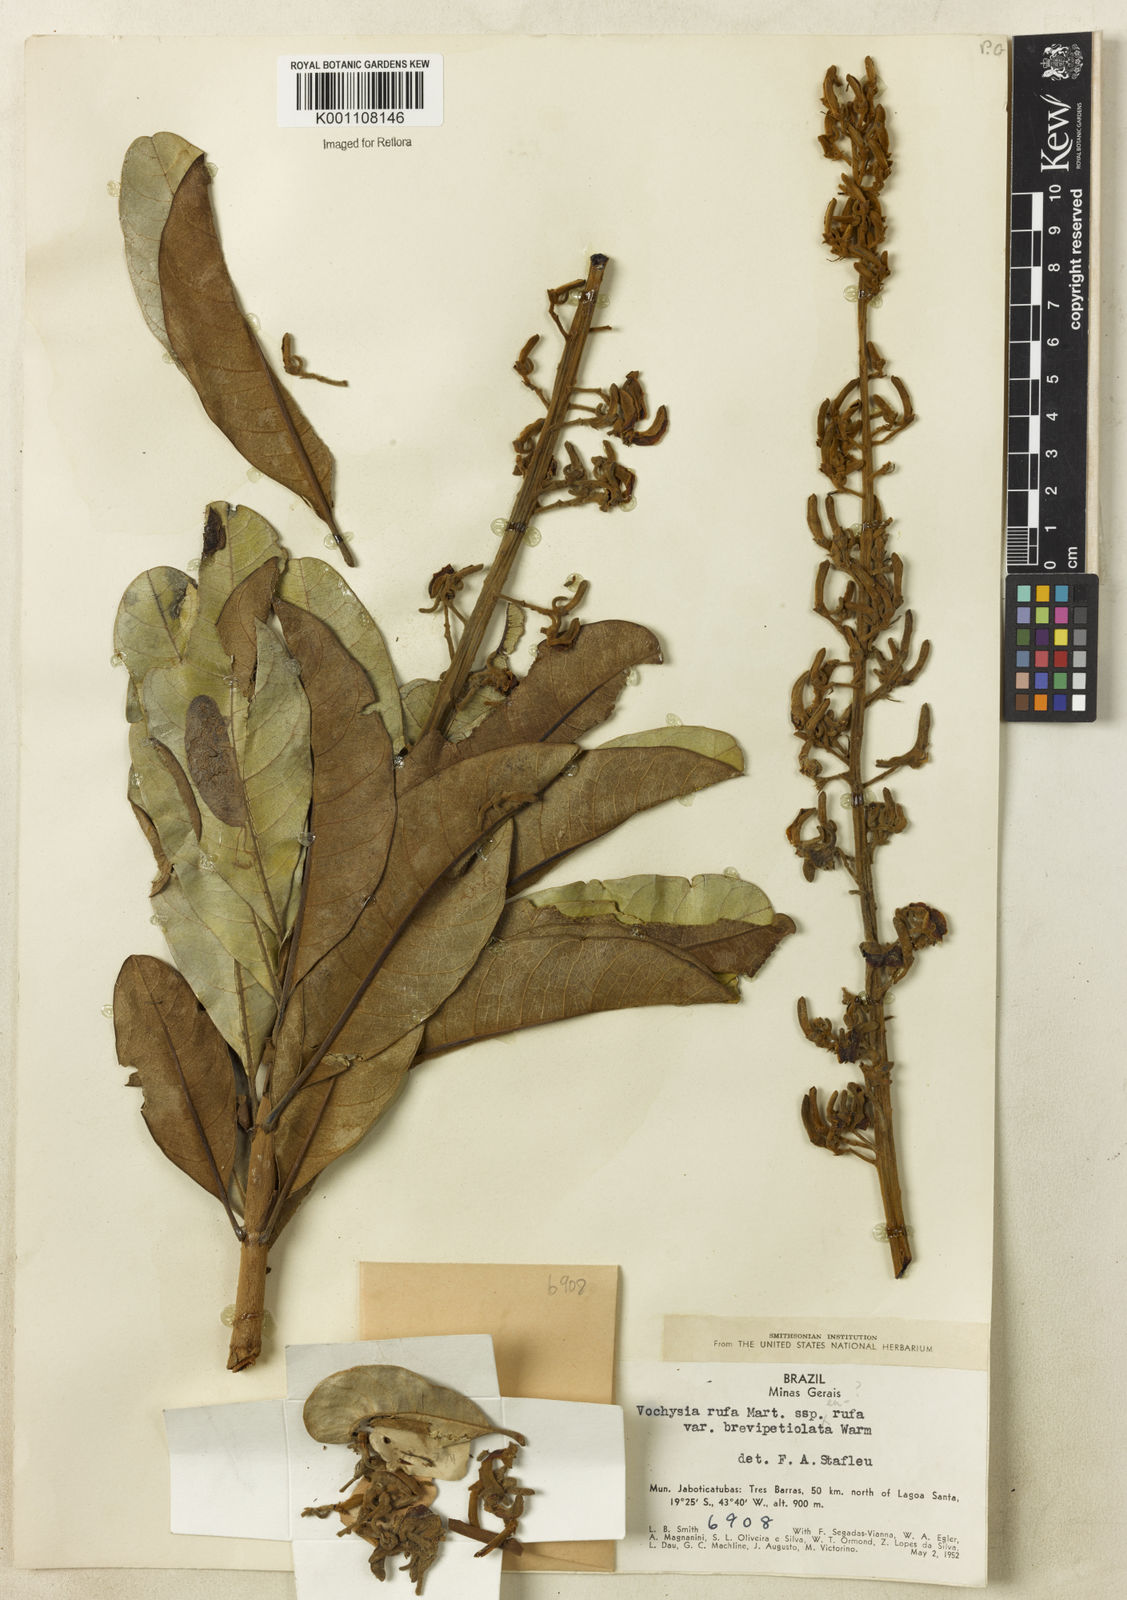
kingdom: Plantae
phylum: Tracheophyta
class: Magnoliopsida
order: Myrtales
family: Vochysiaceae
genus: Vochysia
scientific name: Vochysia rufa
